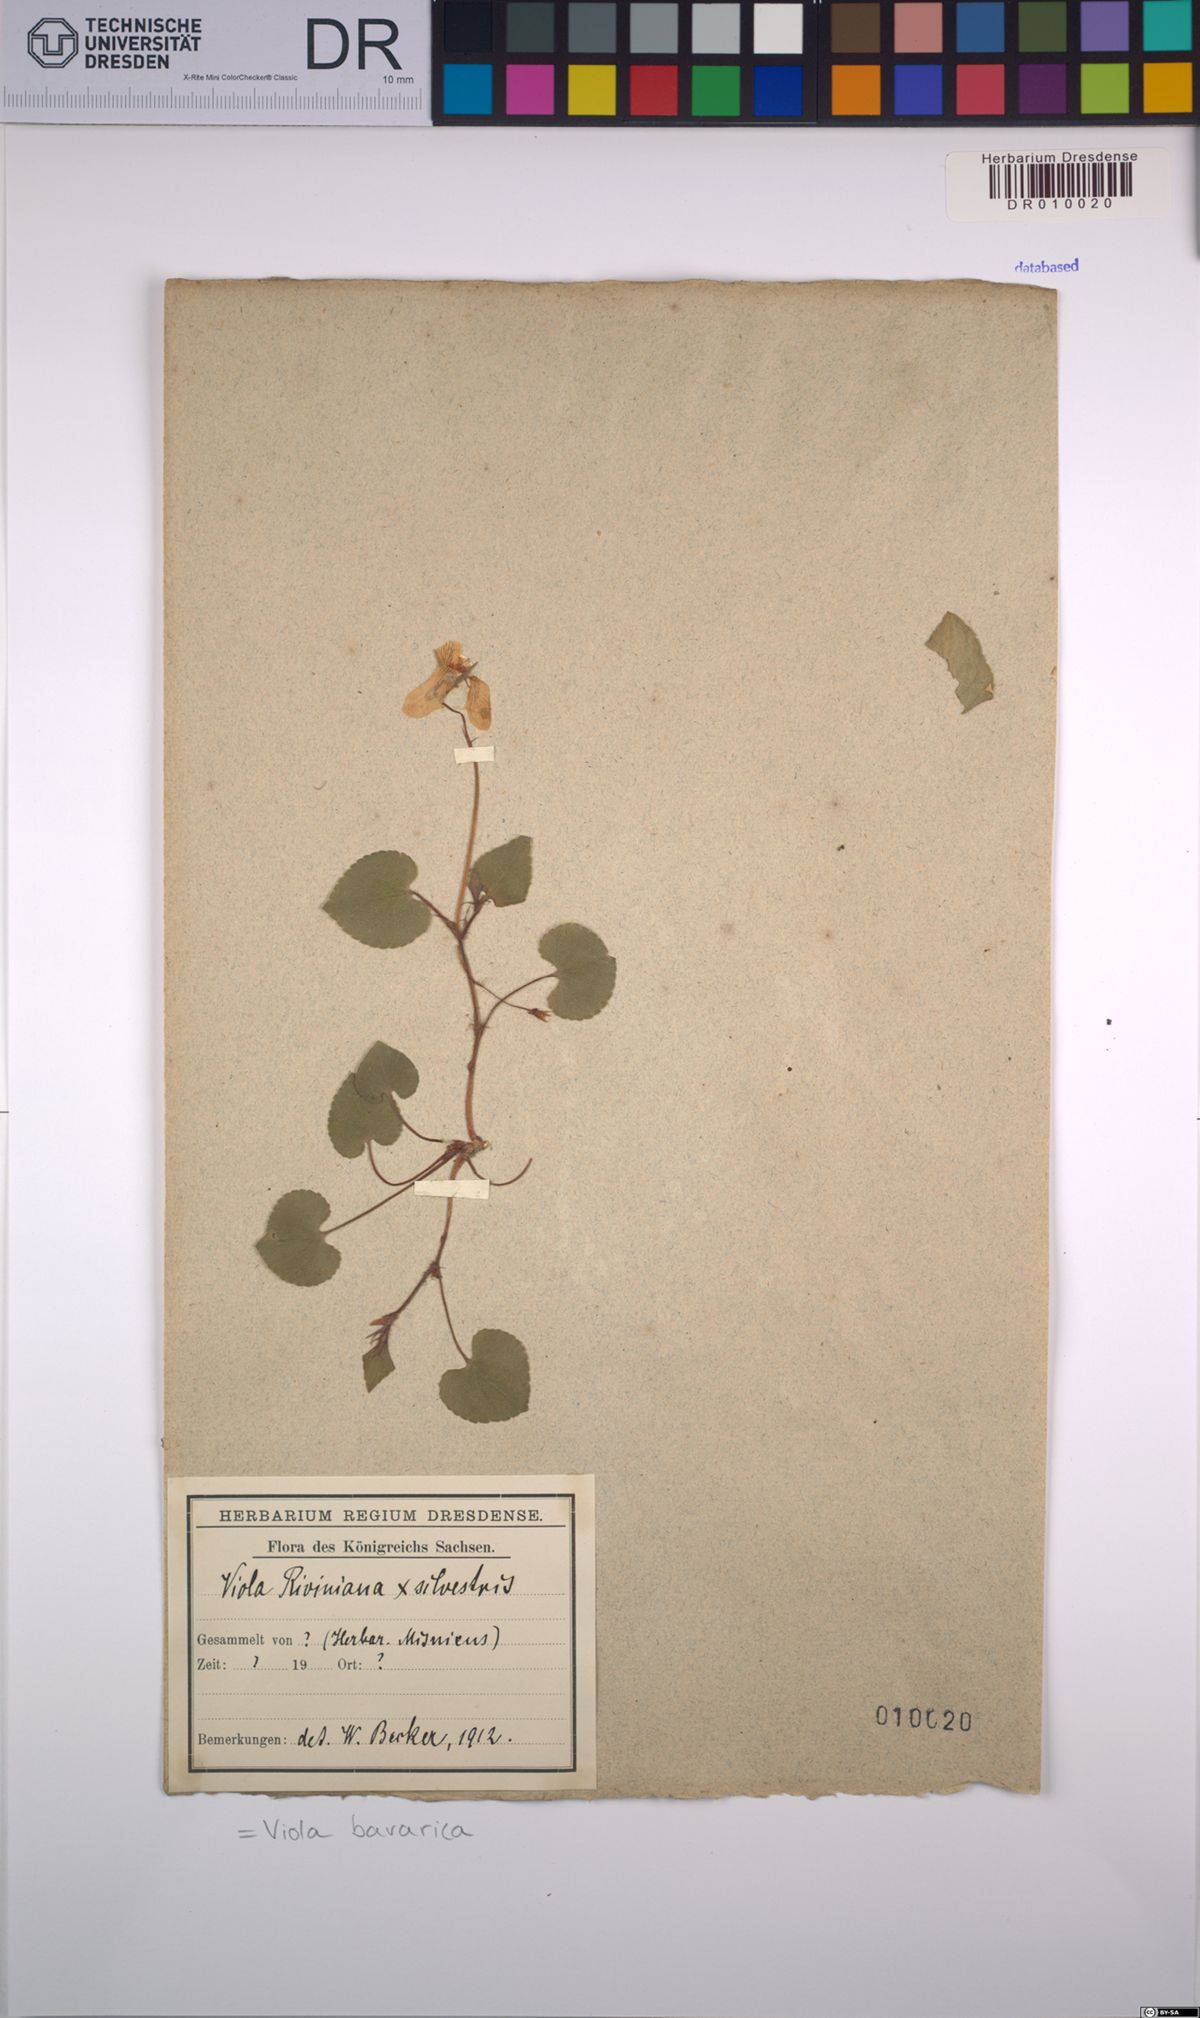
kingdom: Plantae
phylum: Tracheophyta
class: Magnoliopsida
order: Malpighiales
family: Violaceae
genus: Viola
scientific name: Viola bavarica
